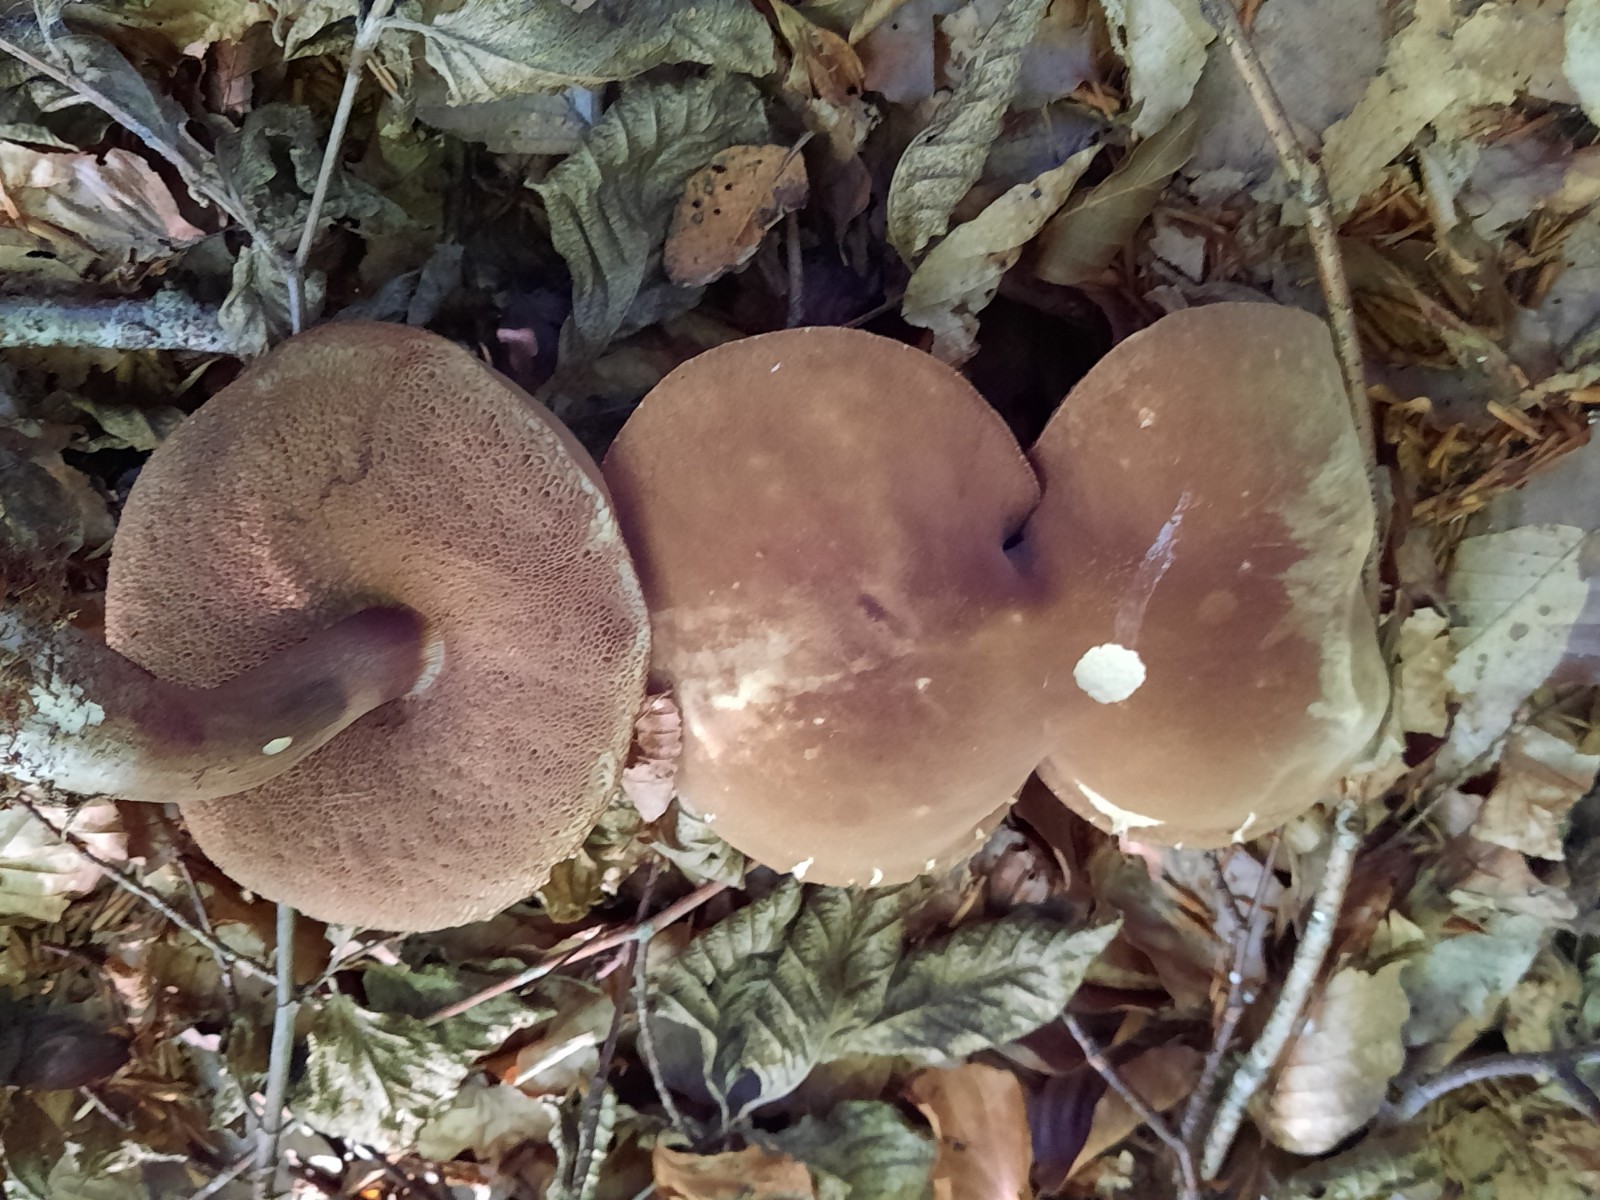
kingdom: Fungi
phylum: Basidiomycota
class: Agaricomycetes
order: Boletales
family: Boletaceae
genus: Porphyrellus
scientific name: Porphyrellus porphyrosporus
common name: sodrørhat
